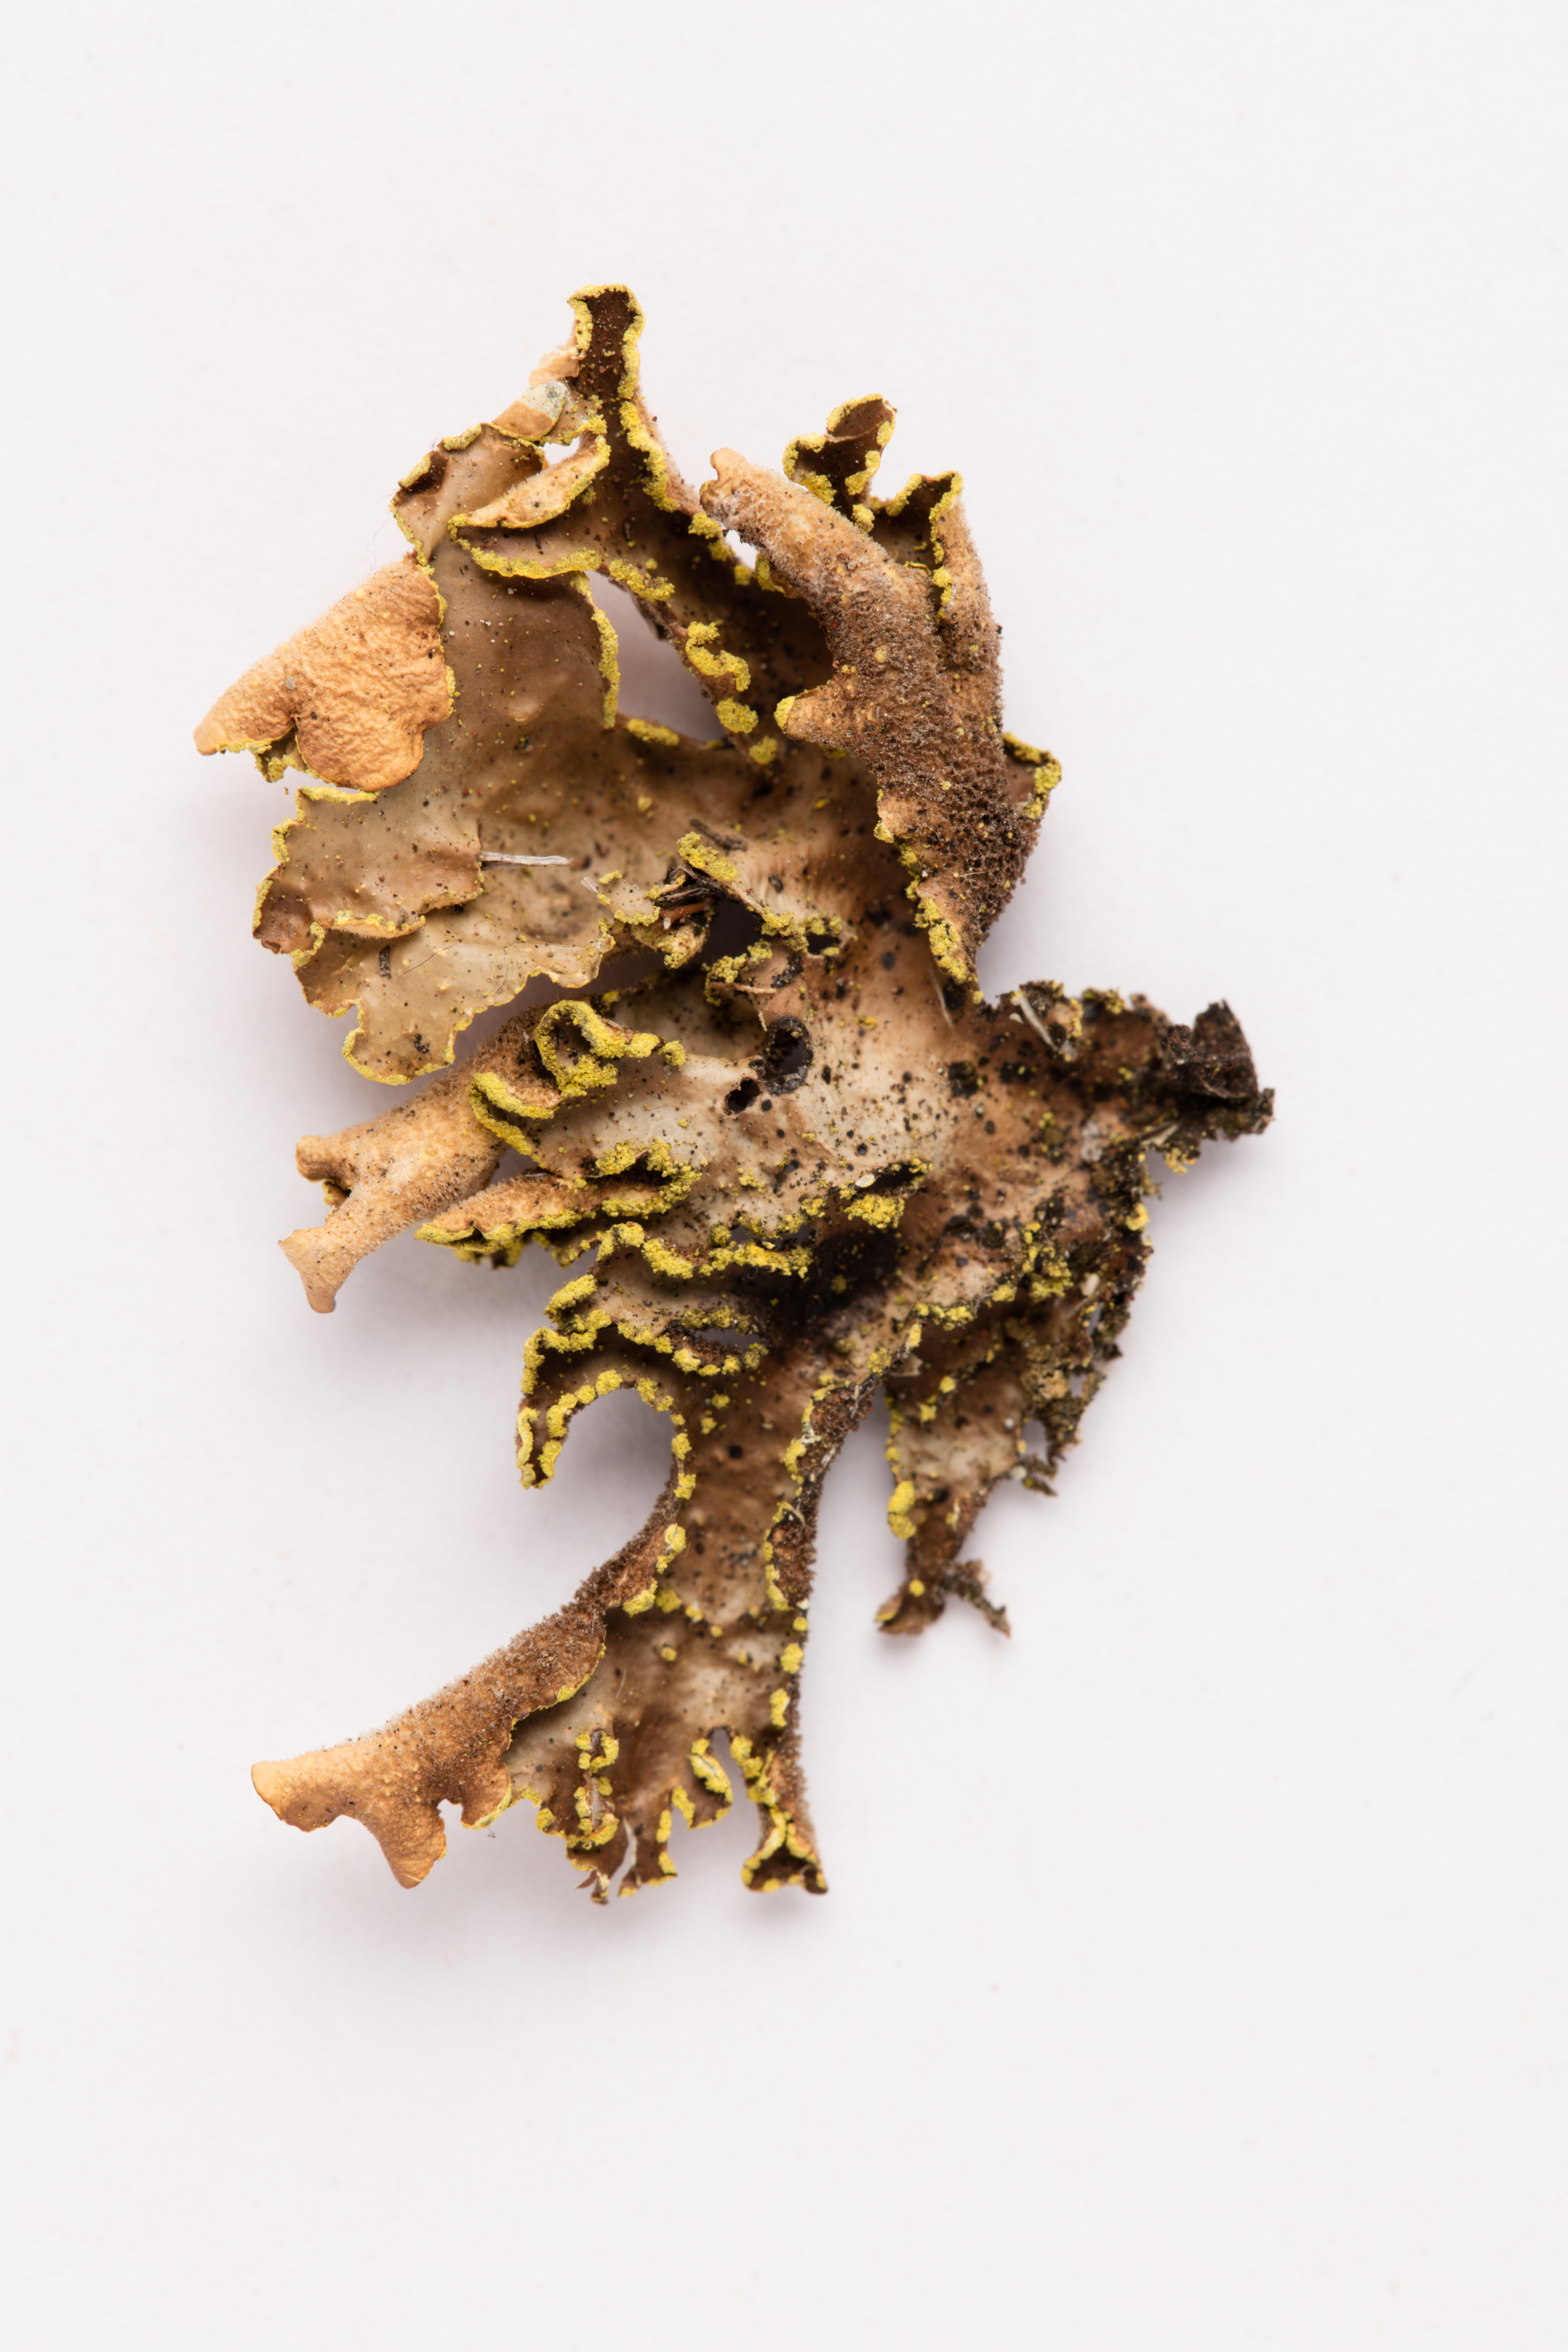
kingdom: Fungi
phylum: Ascomycota
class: Lecanoromycetes
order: Peltigerales
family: Lobariaceae
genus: Pseudocyphellaria
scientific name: Pseudocyphellaria crocata
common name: Golden specklebelly
